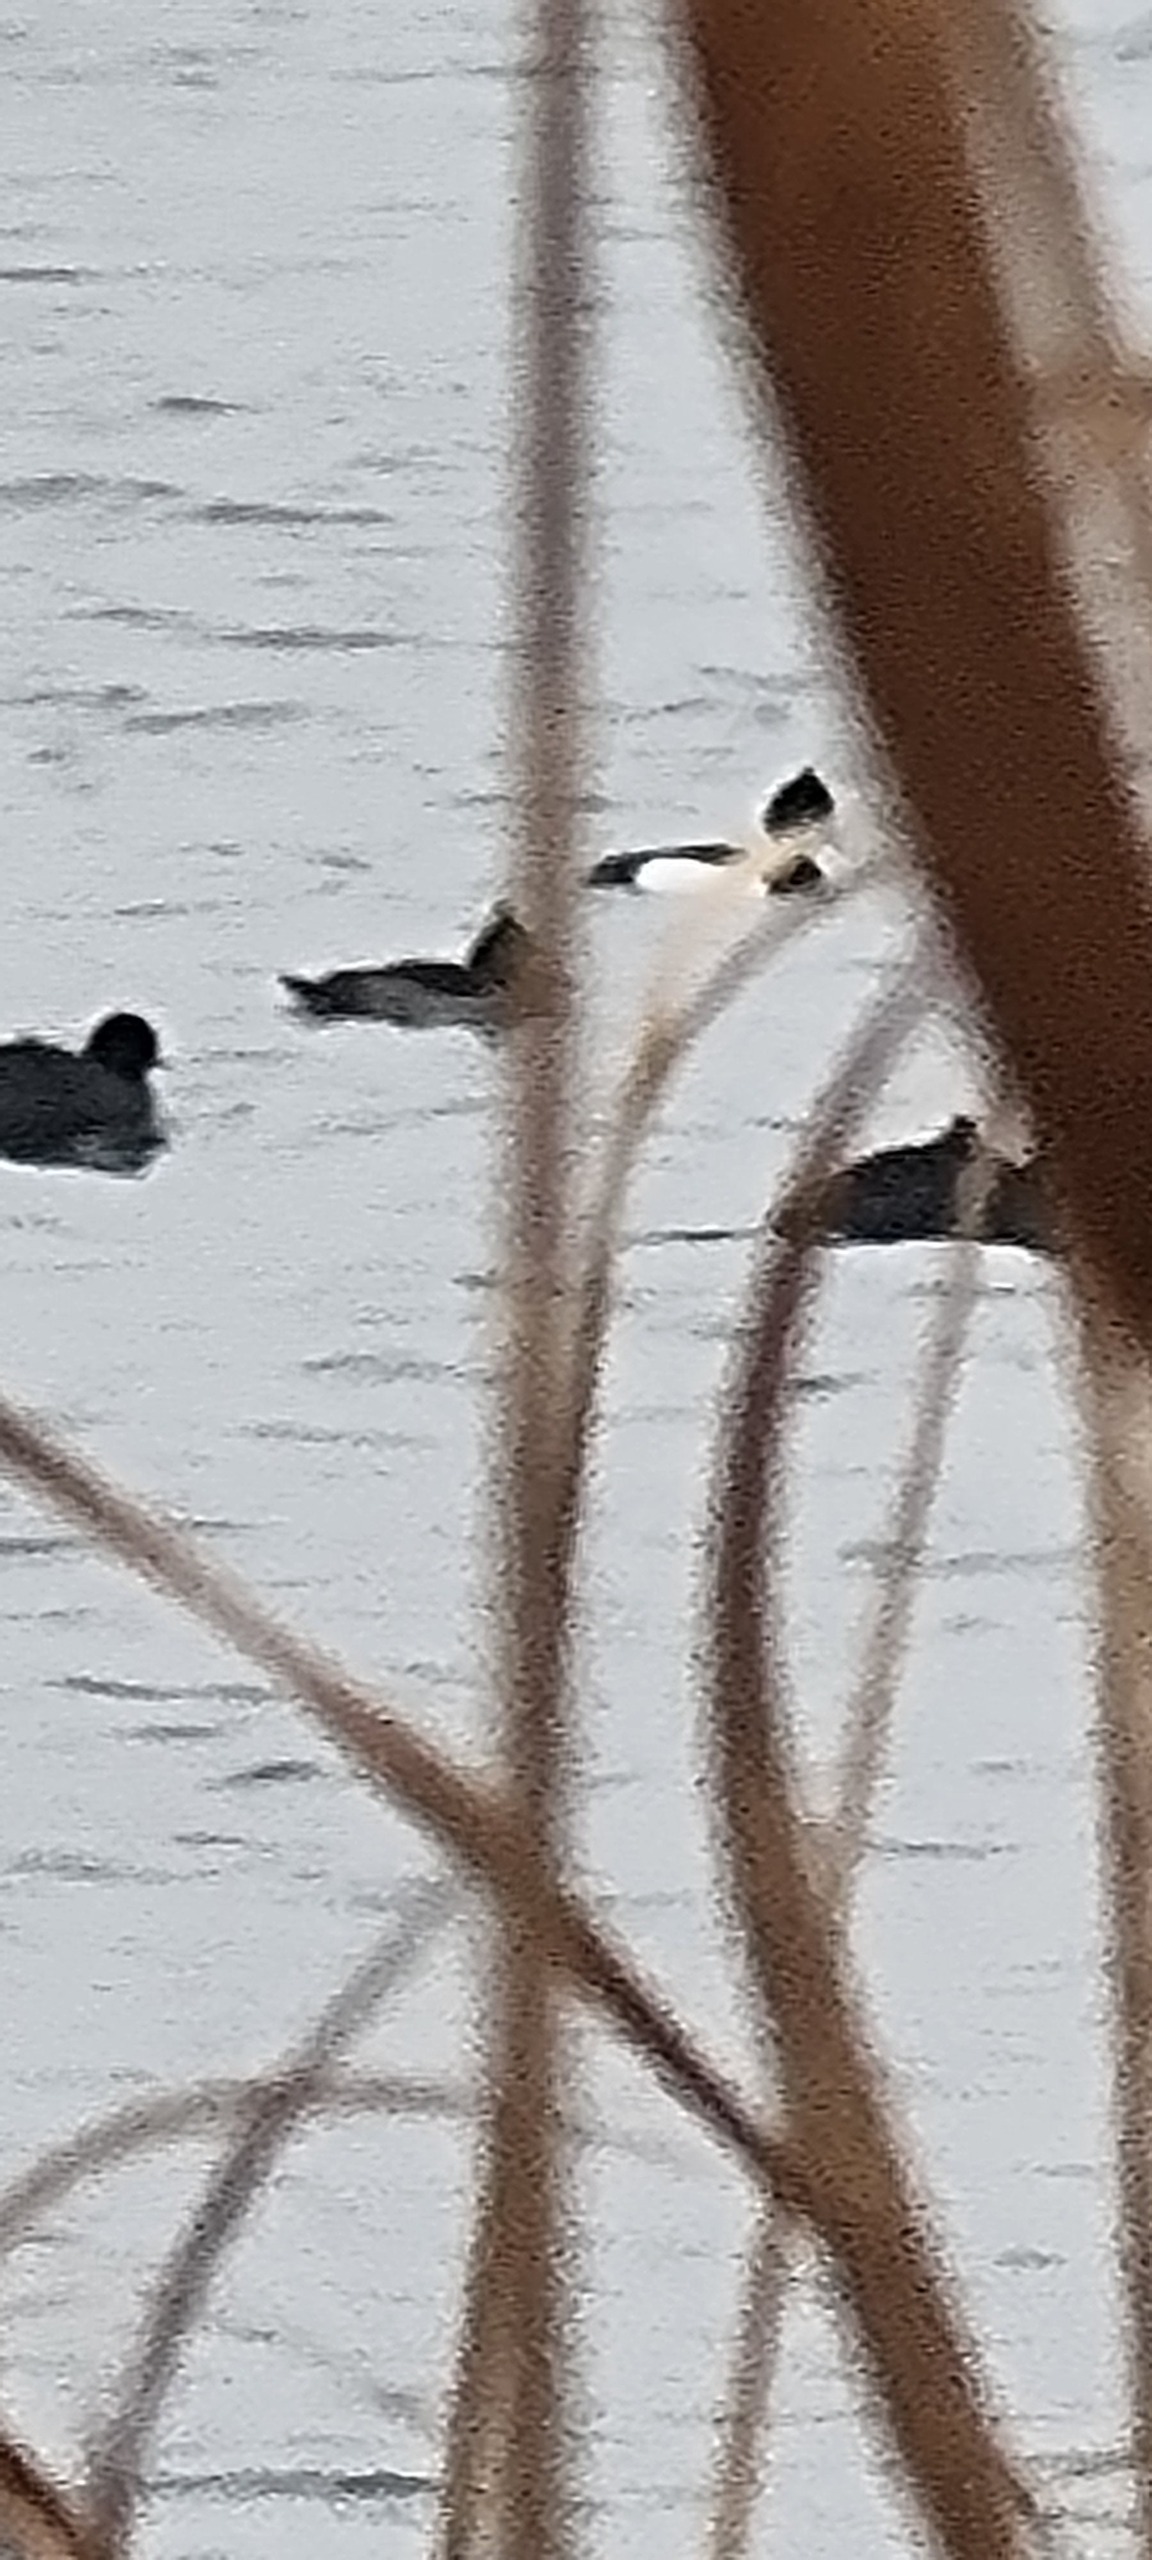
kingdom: Animalia
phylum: Chordata
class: Aves
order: Anseriformes
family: Anatidae
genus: Aythya
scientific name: Aythya fuligula
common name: Troldand
